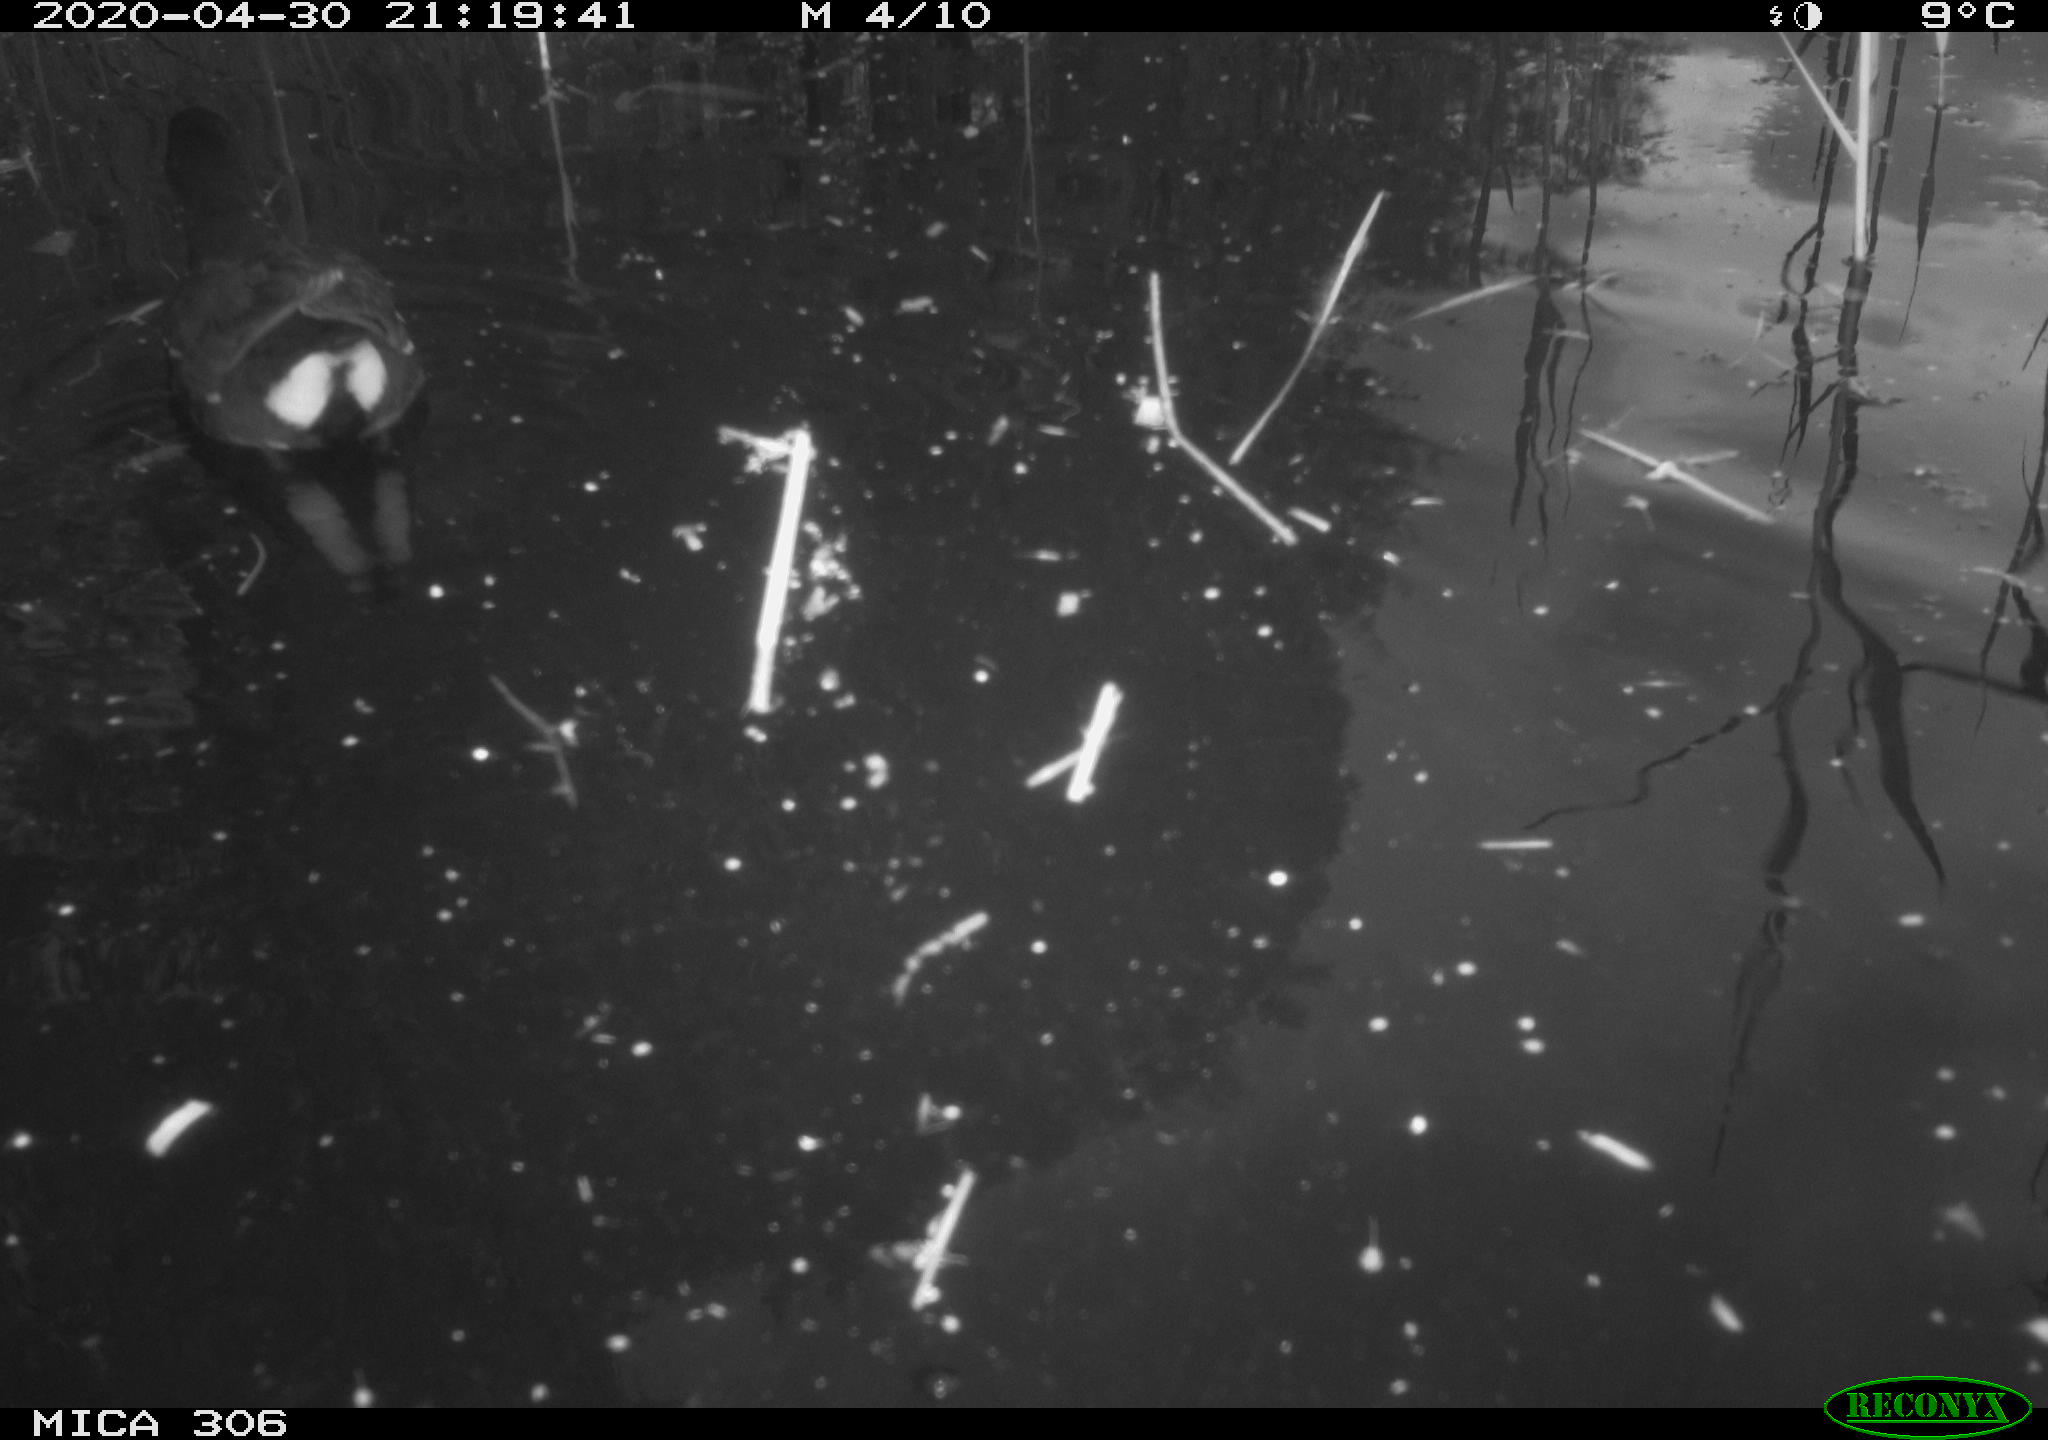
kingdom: Animalia
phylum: Chordata
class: Aves
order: Gruiformes
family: Rallidae
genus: Gallinula
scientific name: Gallinula chloropus
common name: Common moorhen
